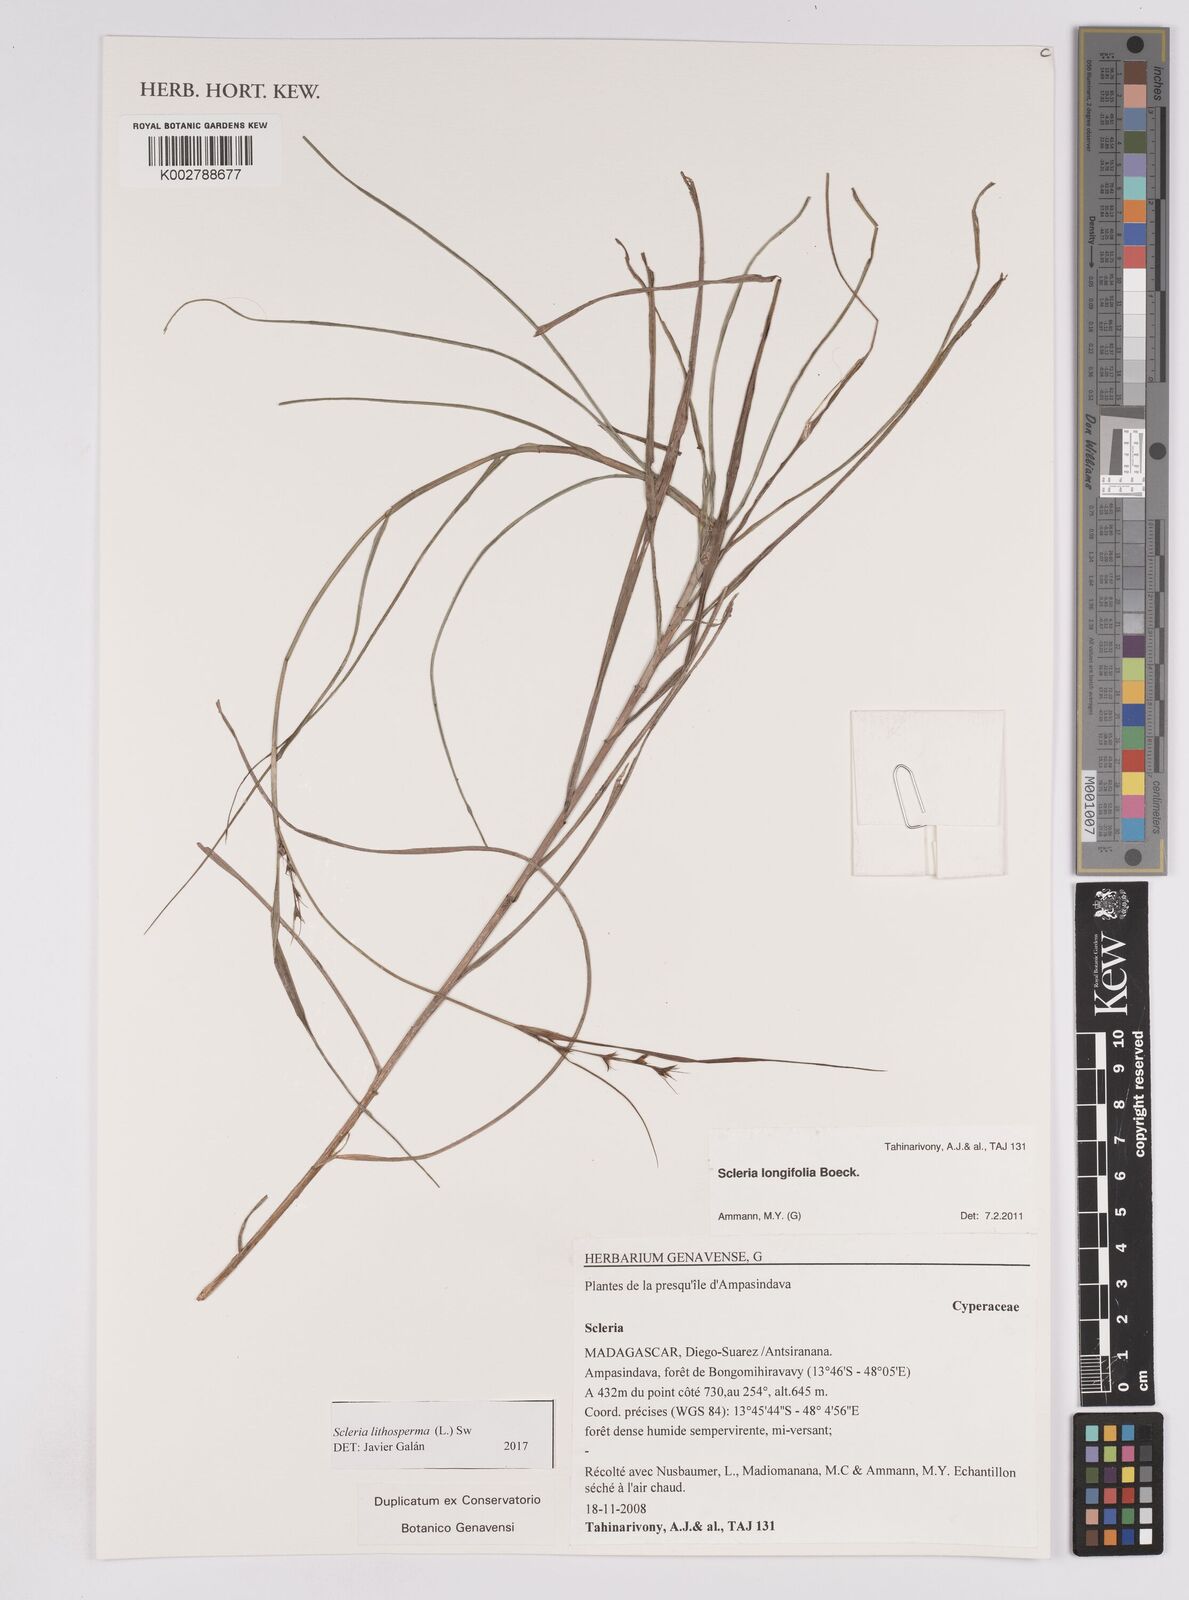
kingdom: Plantae
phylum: Tracheophyta
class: Liliopsida
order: Poales
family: Cyperaceae
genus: Scleria
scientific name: Scleria lithosperma
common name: Florida keys nut-rush
